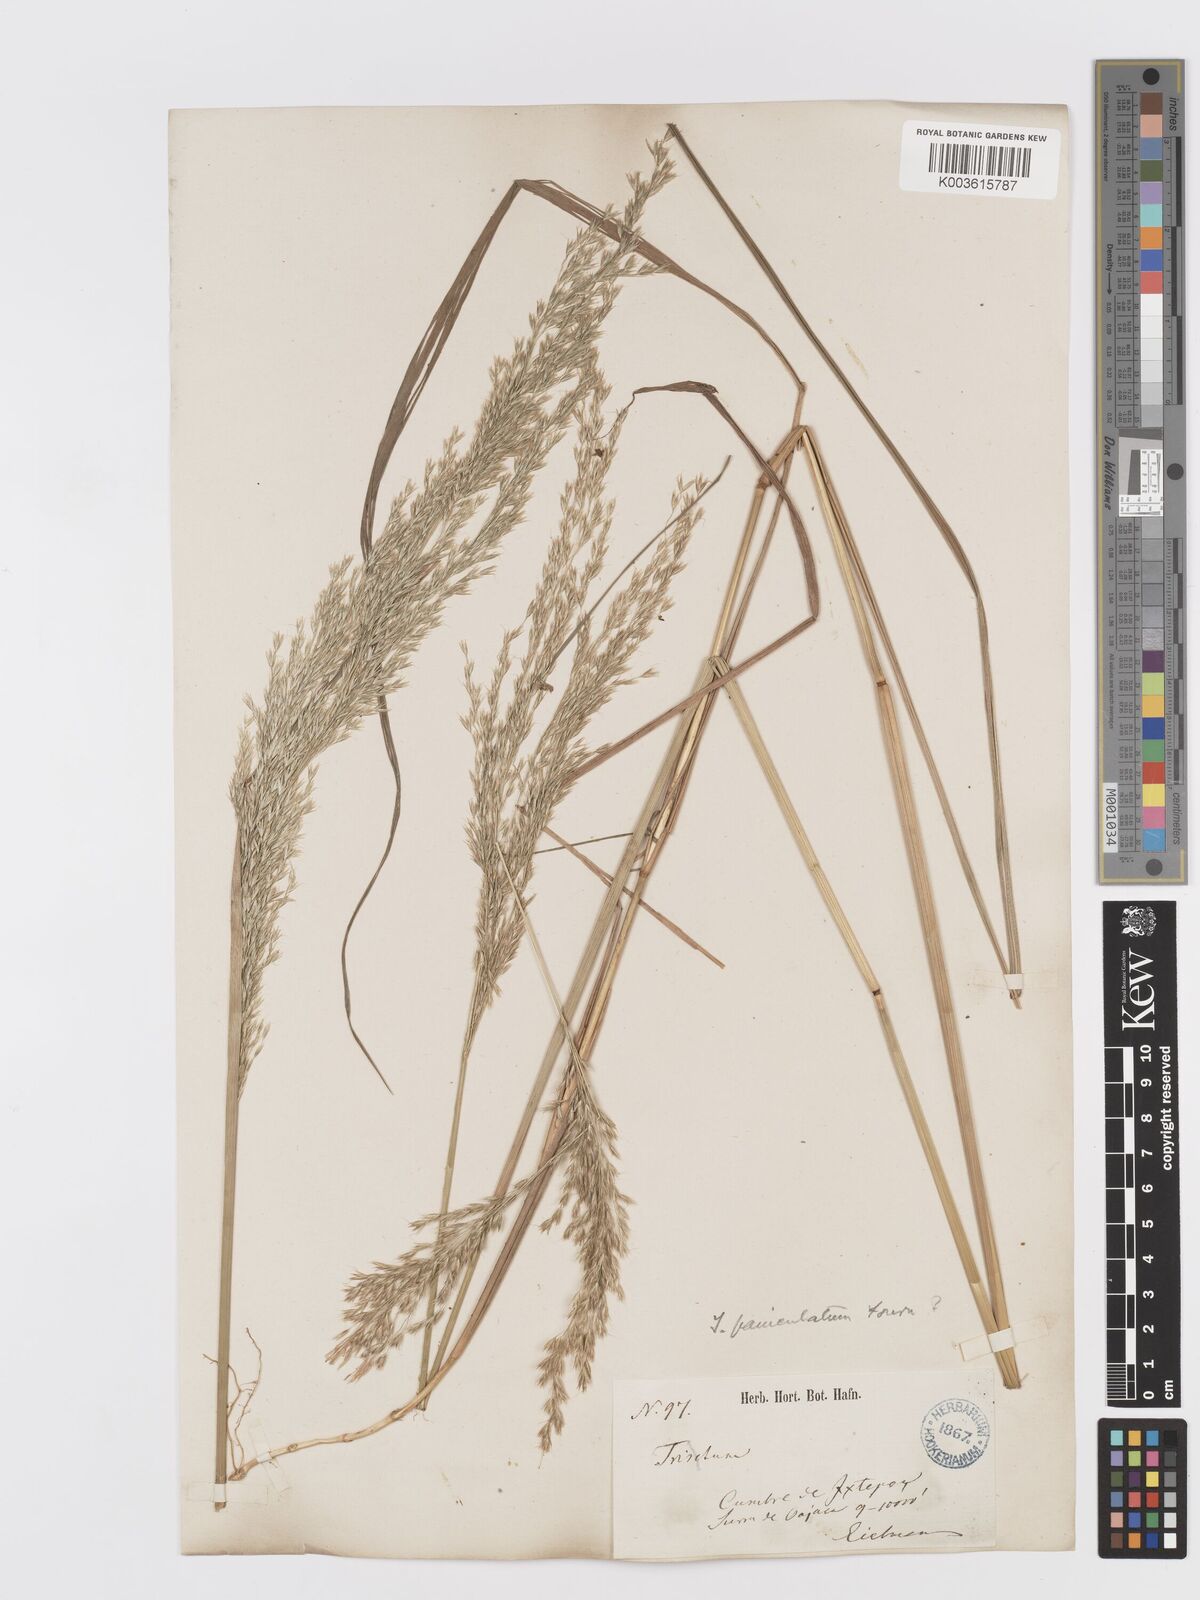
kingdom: Plantae
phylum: Tracheophyta
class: Liliopsida
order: Poales
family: Poaceae
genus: Peyritschia
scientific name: Peyritschia viridis
